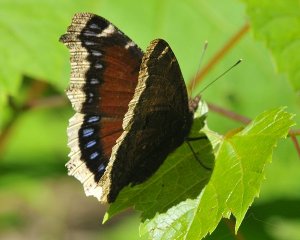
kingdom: Animalia
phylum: Arthropoda
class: Insecta
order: Lepidoptera
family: Nymphalidae
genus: Nymphalis
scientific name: Nymphalis antiopa
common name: Mourning Cloak
